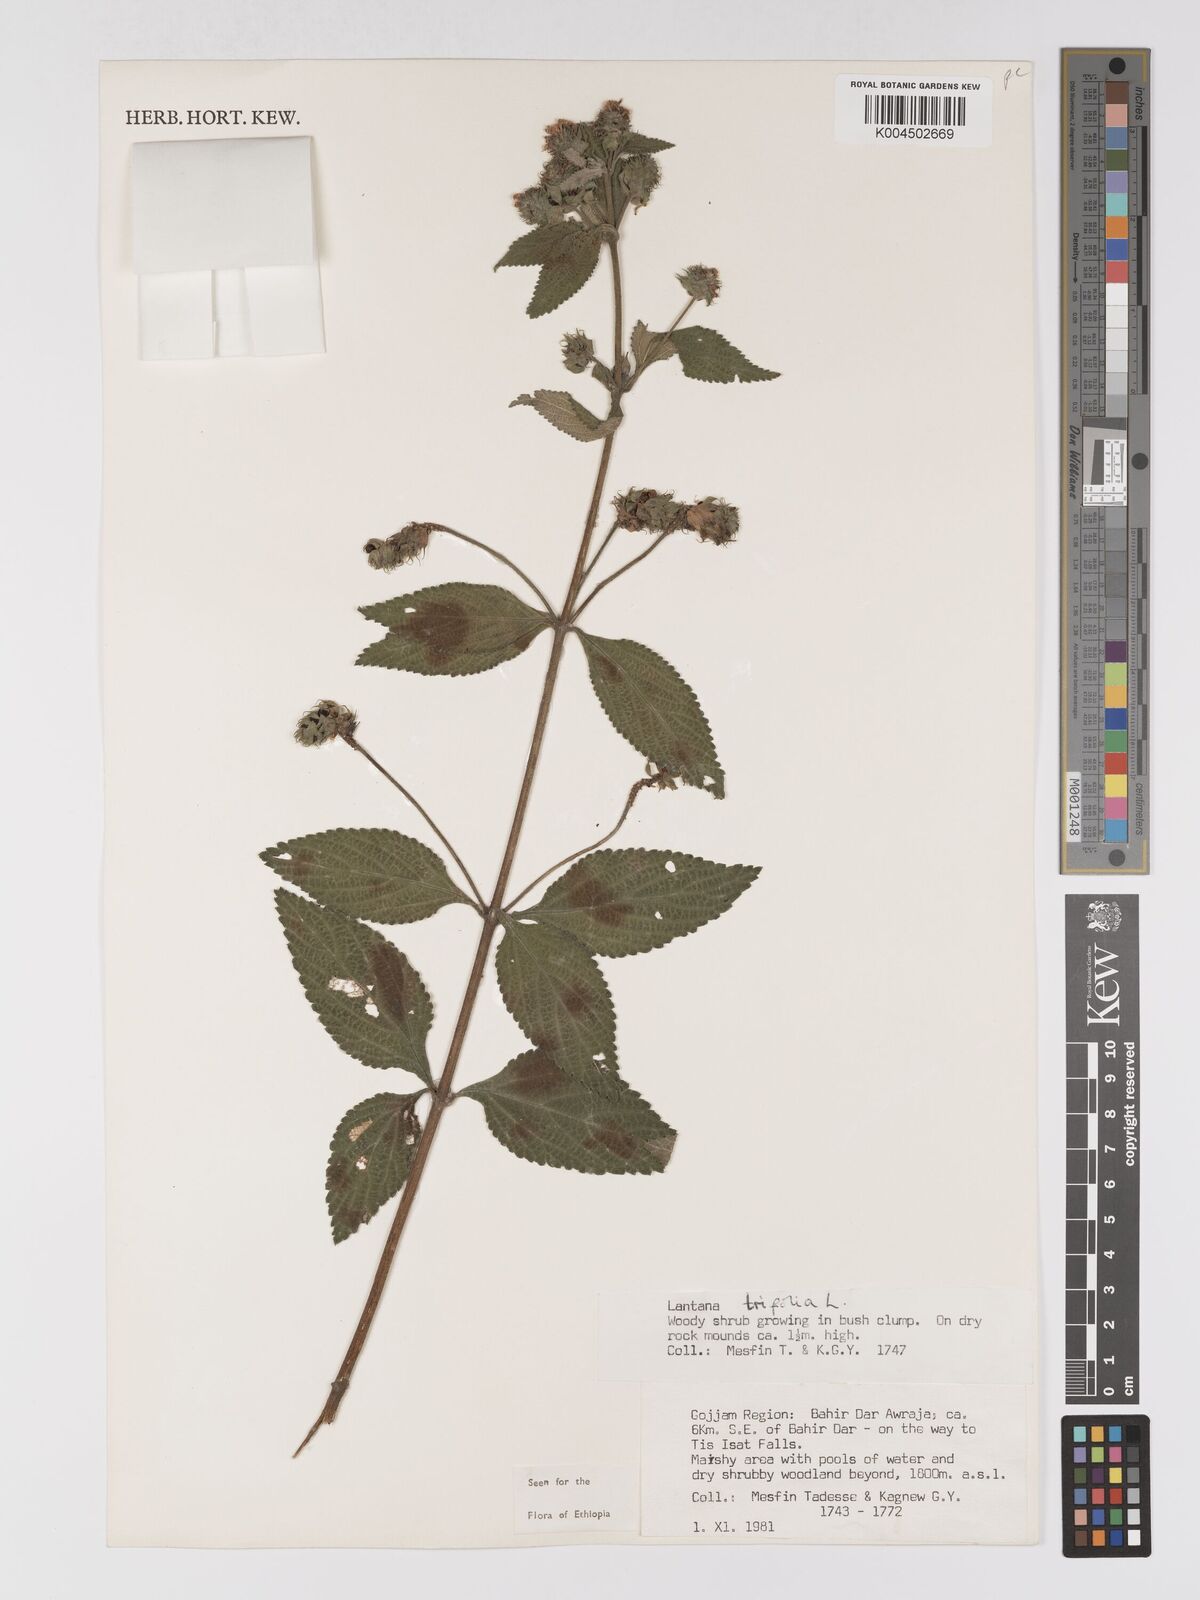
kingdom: Plantae
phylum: Tracheophyta
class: Magnoliopsida
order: Lamiales
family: Verbenaceae
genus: Lantana
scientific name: Lantana trifolia
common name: Sweet-sage
